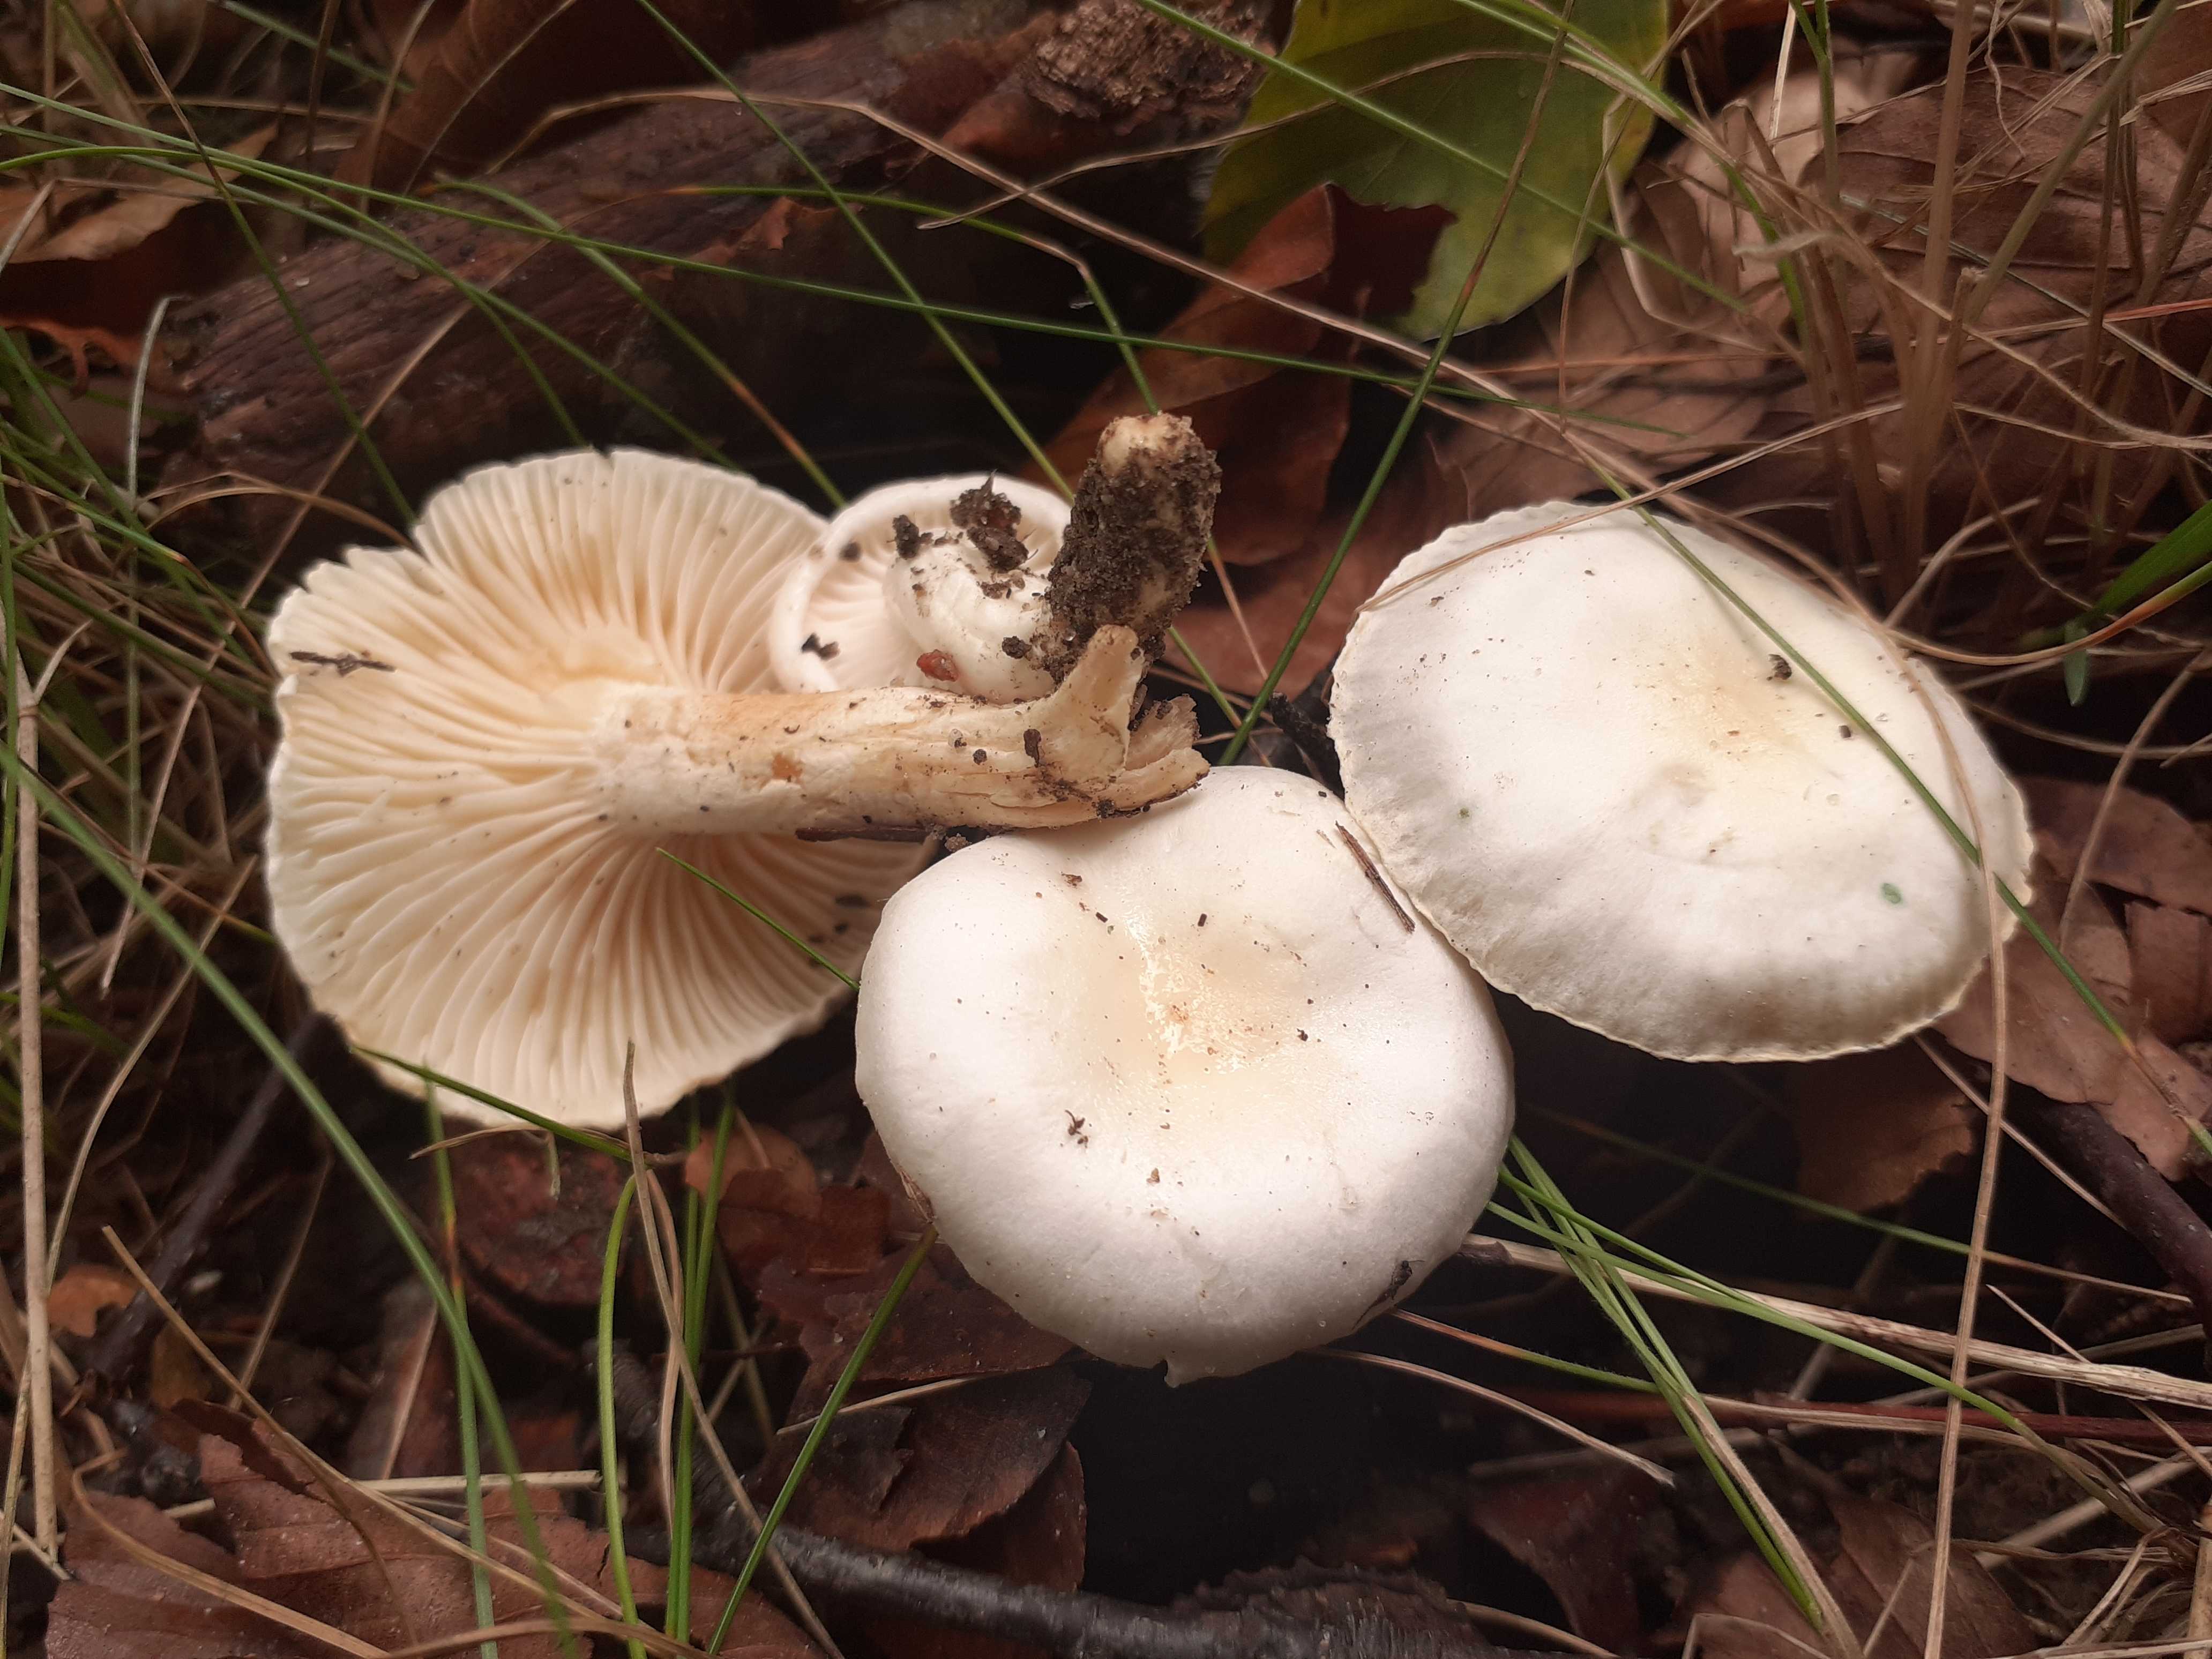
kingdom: Fungi
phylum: Basidiomycota
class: Agaricomycetes
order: Agaricales
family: Hygrophoraceae
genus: Hygrophorus
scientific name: Hygrophorus discoxanthus
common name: ildelugtende sneglehat
